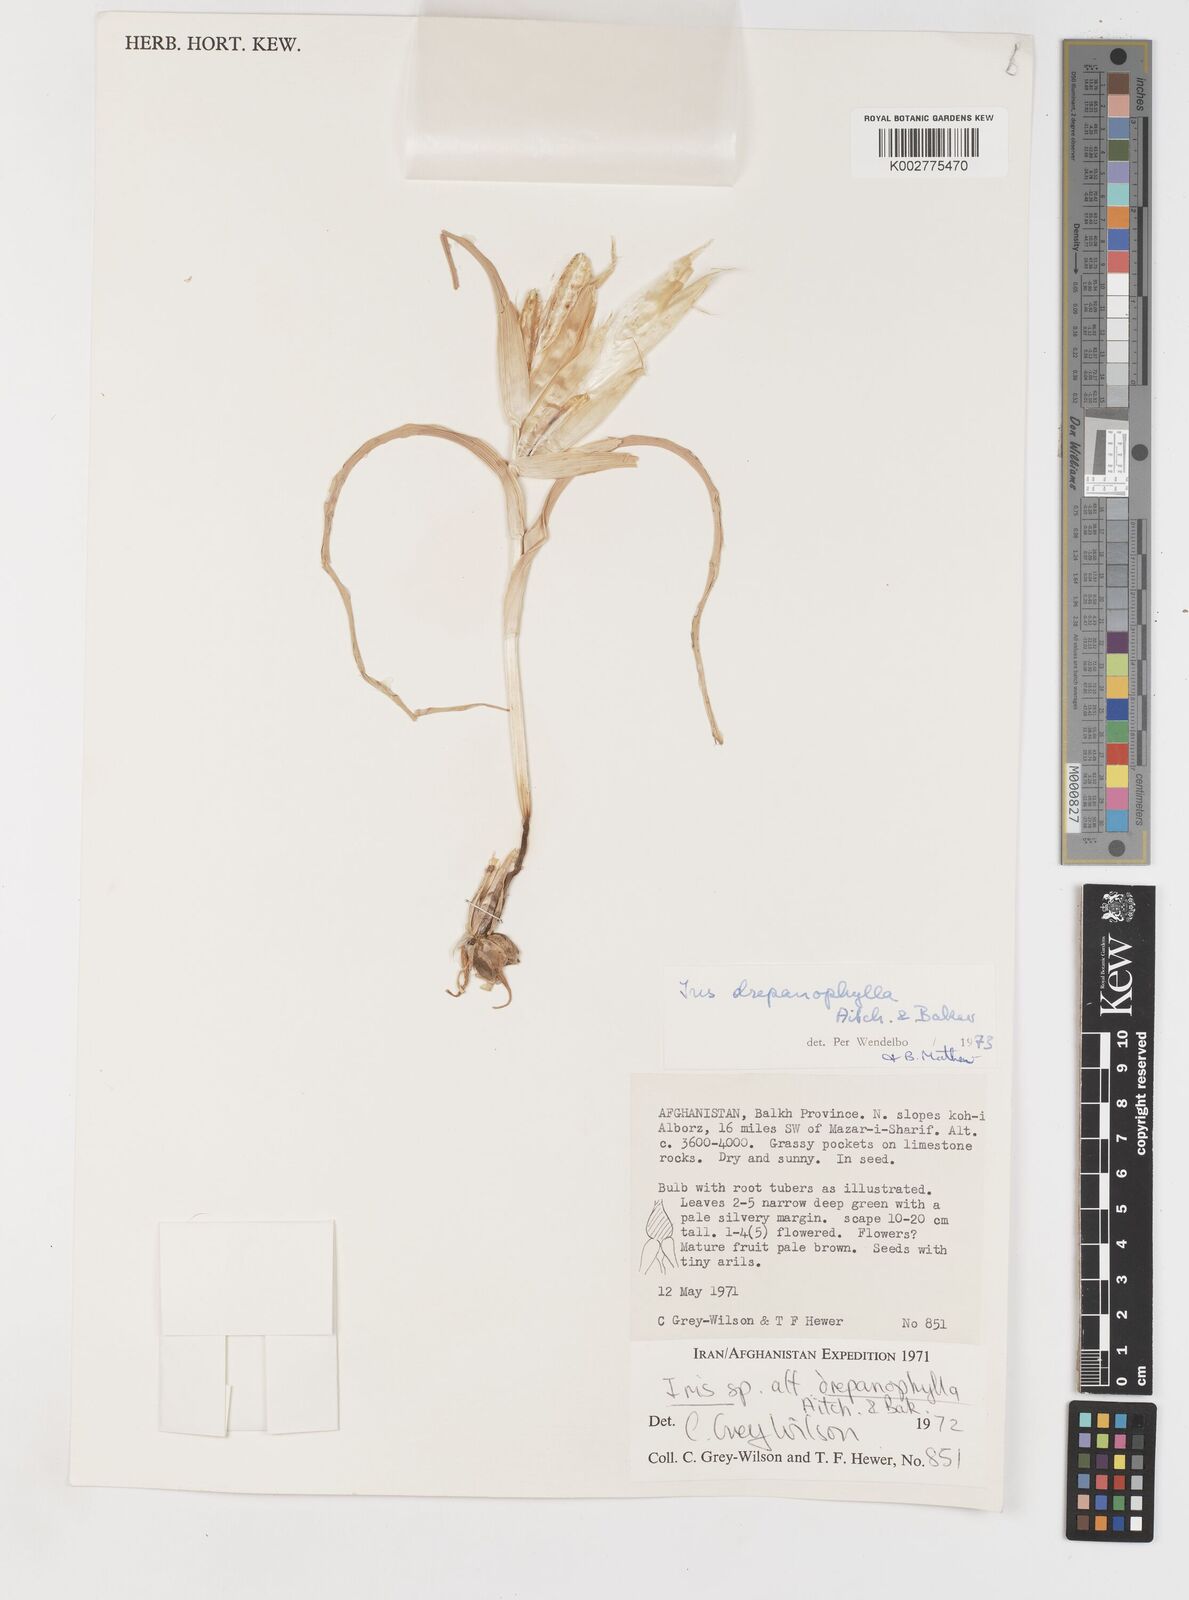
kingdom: Plantae
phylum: Tracheophyta
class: Liliopsida
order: Asparagales
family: Iridaceae
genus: Iris
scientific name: Iris drepanophylla
